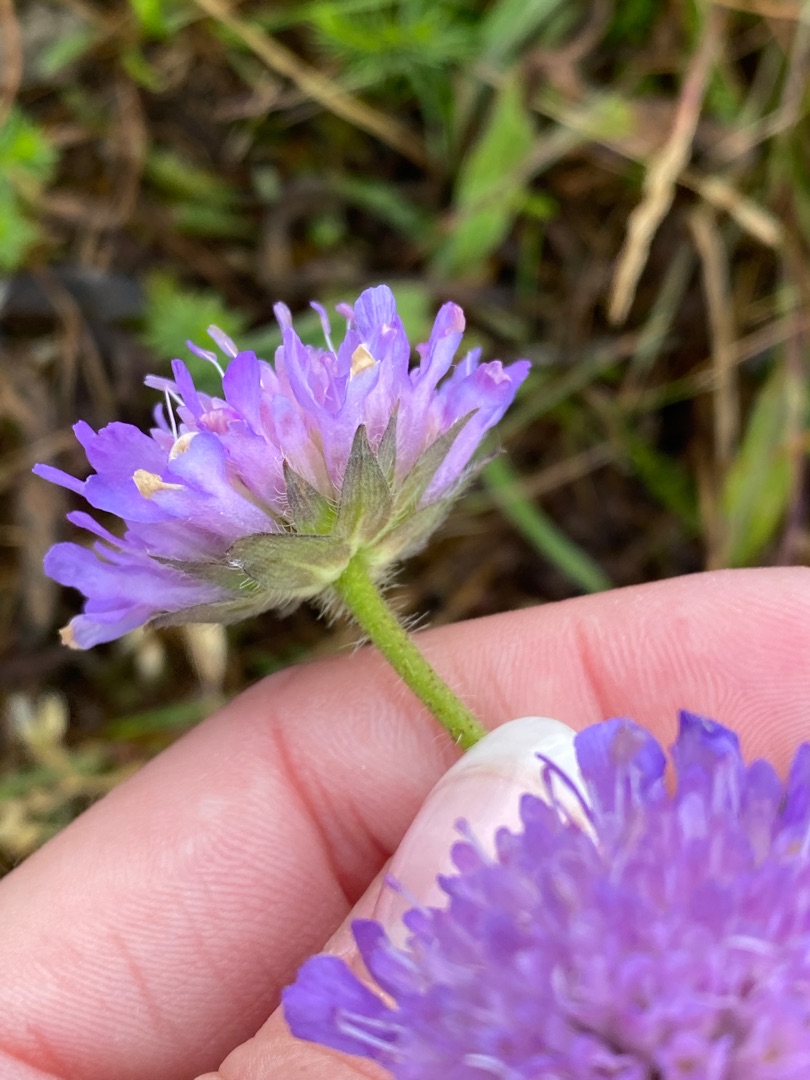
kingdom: Plantae
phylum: Tracheophyta
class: Magnoliopsida
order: Dipsacales
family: Caprifoliaceae
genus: Knautia
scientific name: Knautia arvensis
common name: Blåhat
